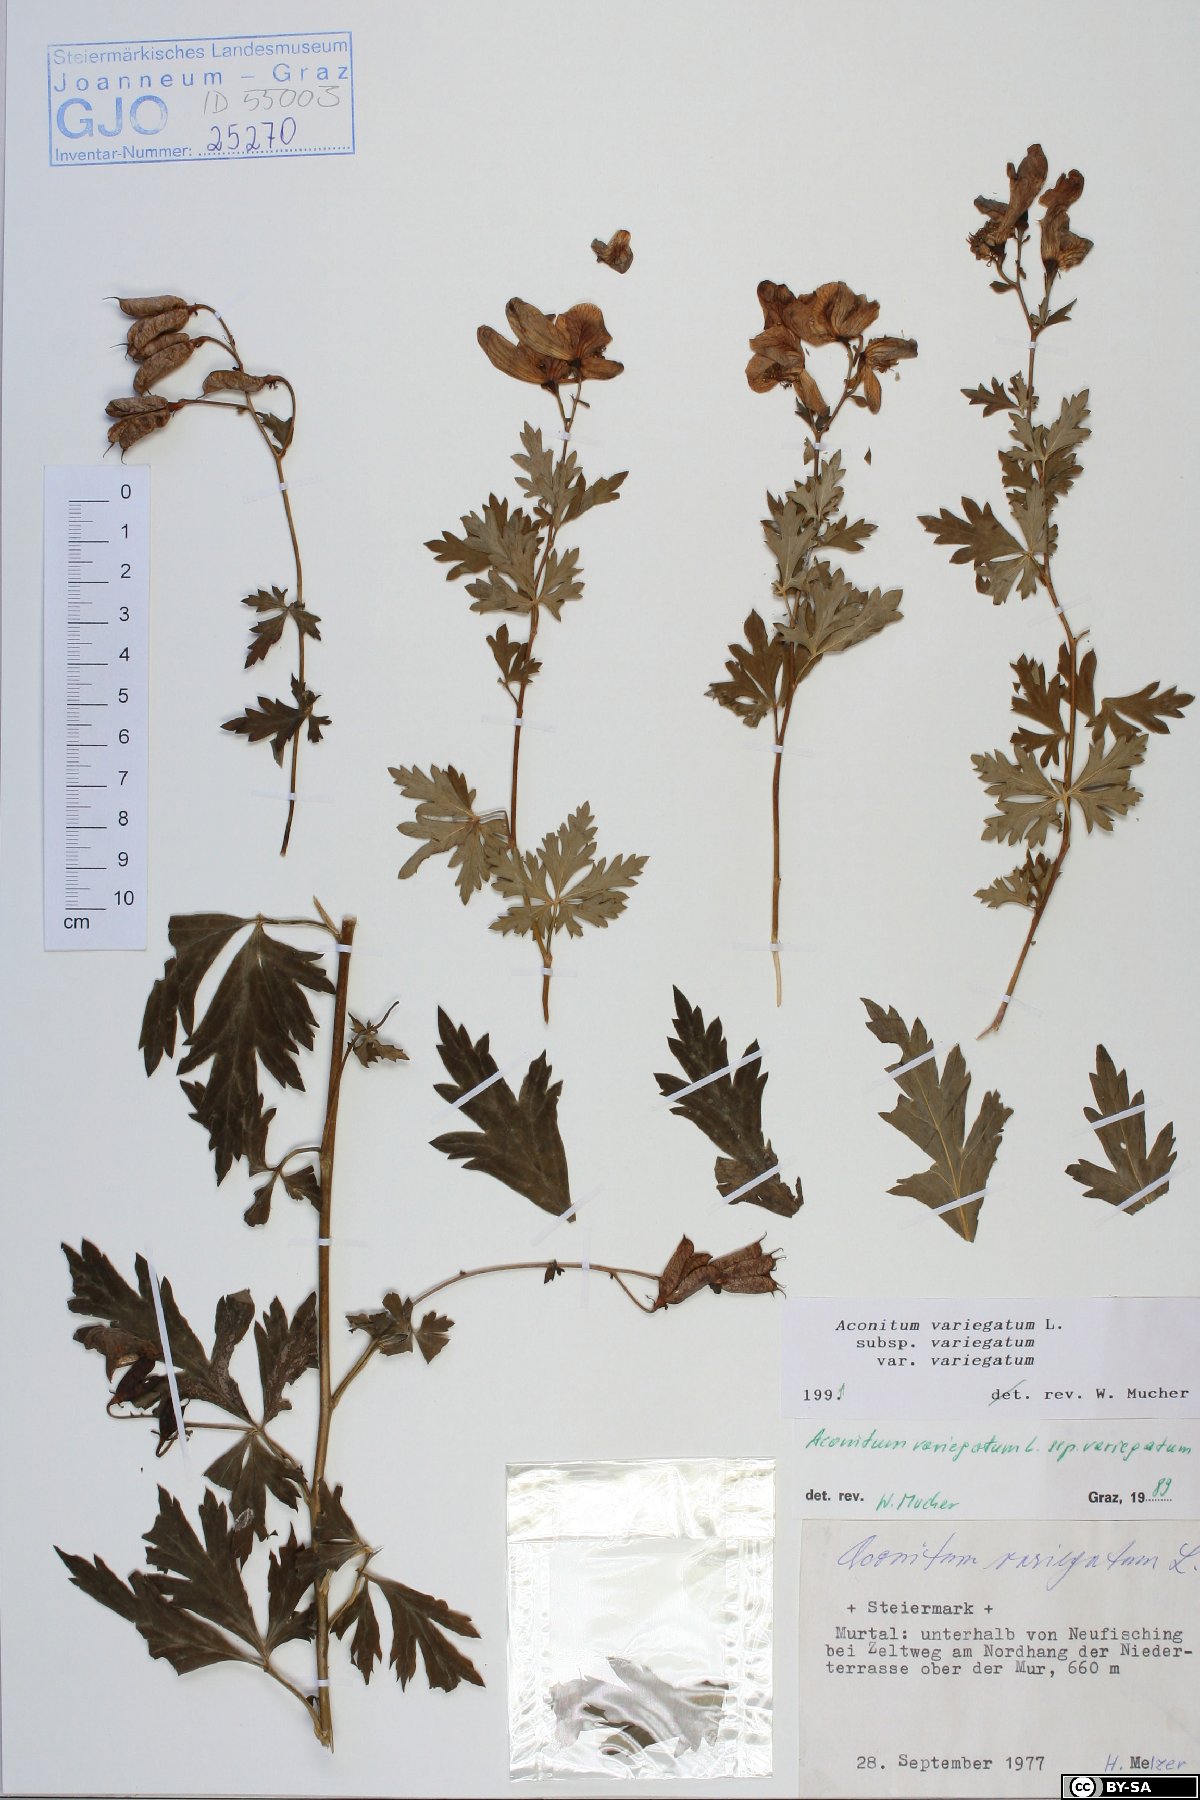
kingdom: Plantae
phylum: Tracheophyta
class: Magnoliopsida
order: Ranunculales
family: Ranunculaceae
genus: Aconitum
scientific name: Aconitum variegatum
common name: Manchurian monkshood
